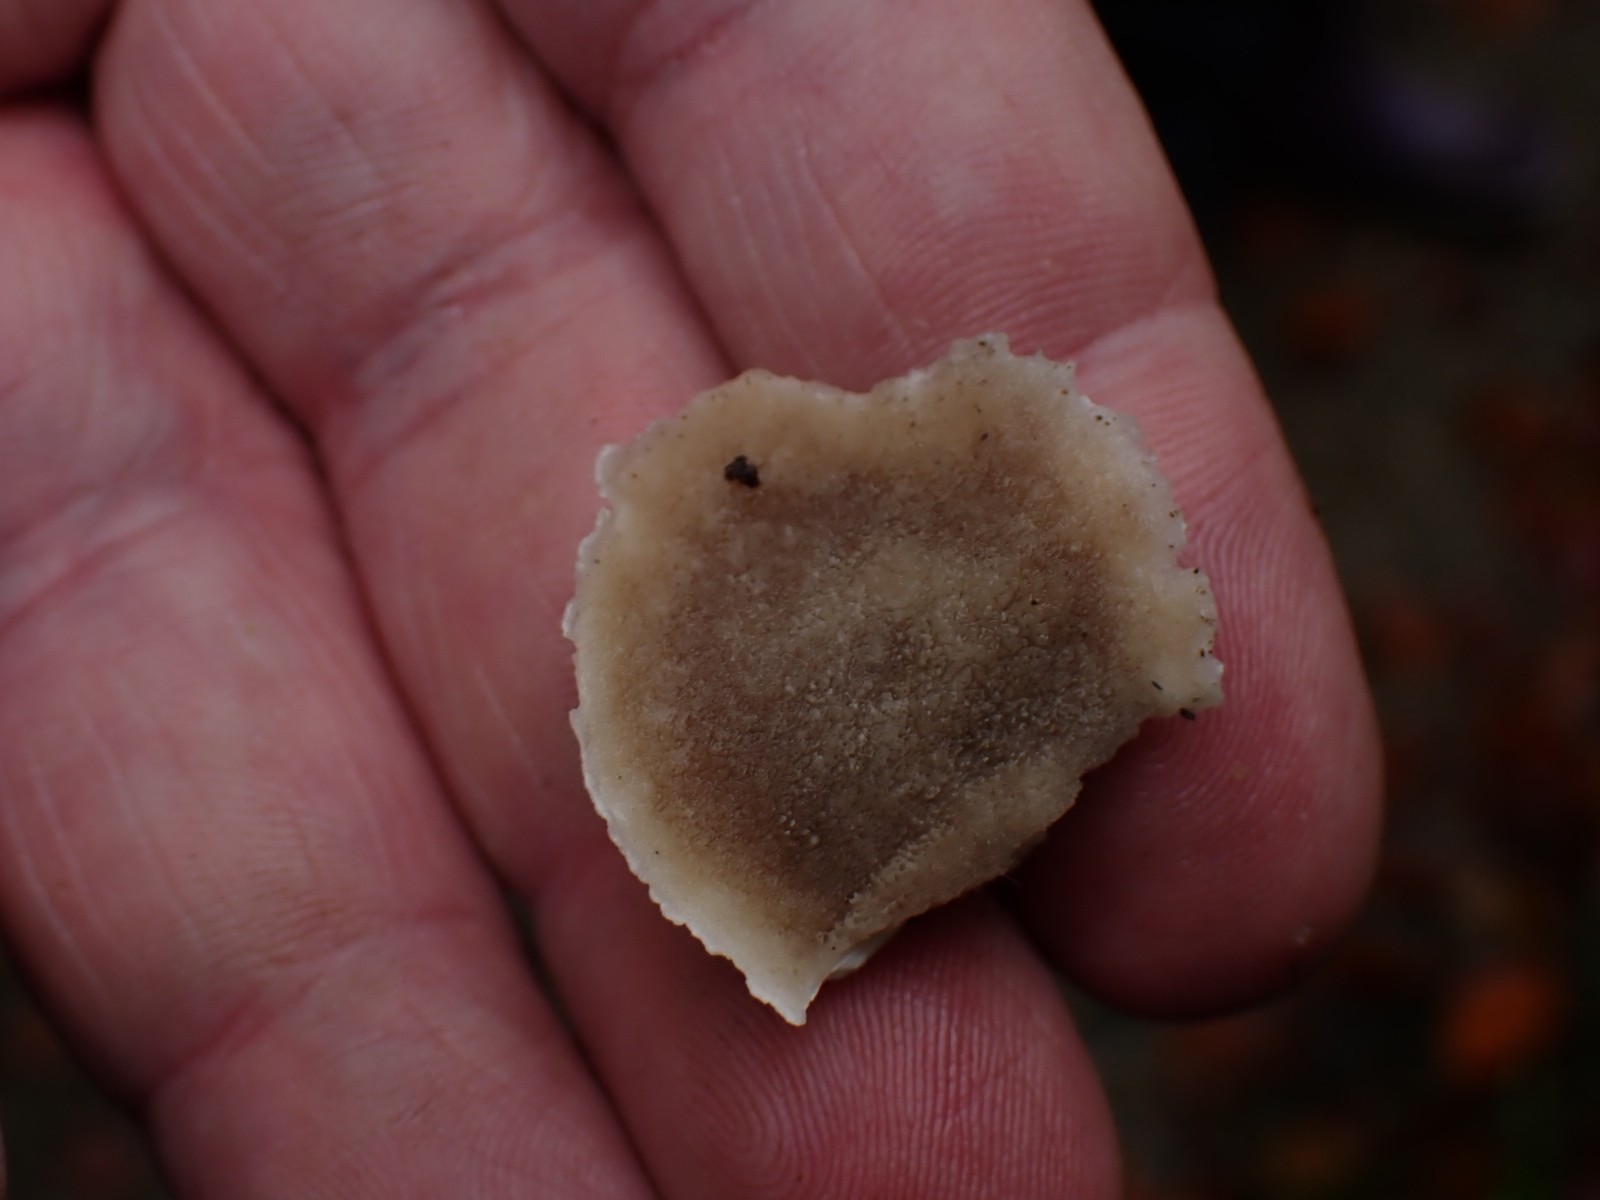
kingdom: Fungi
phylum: Basidiomycota
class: Agaricomycetes
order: Polyporales
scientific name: Polyporales
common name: poresvampordenen
